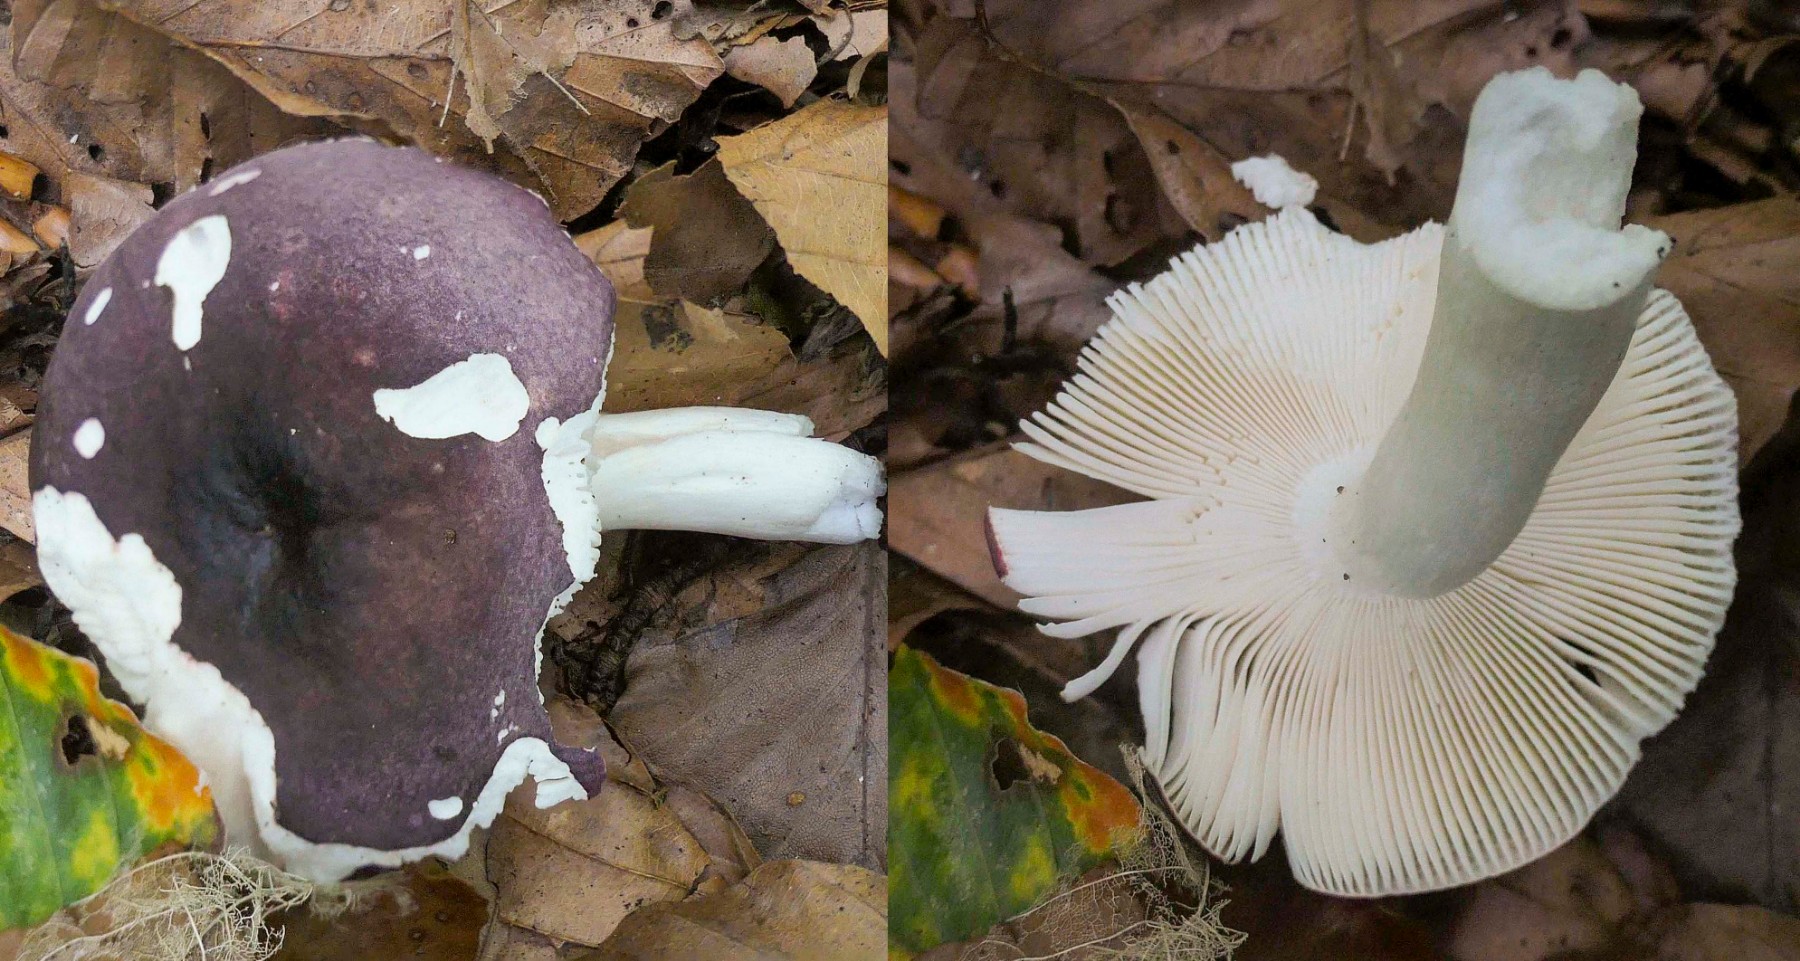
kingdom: Fungi
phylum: Basidiomycota
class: Agaricomycetes
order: Russulales
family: Russulaceae
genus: Russula
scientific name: Russula brunneoviolacea
